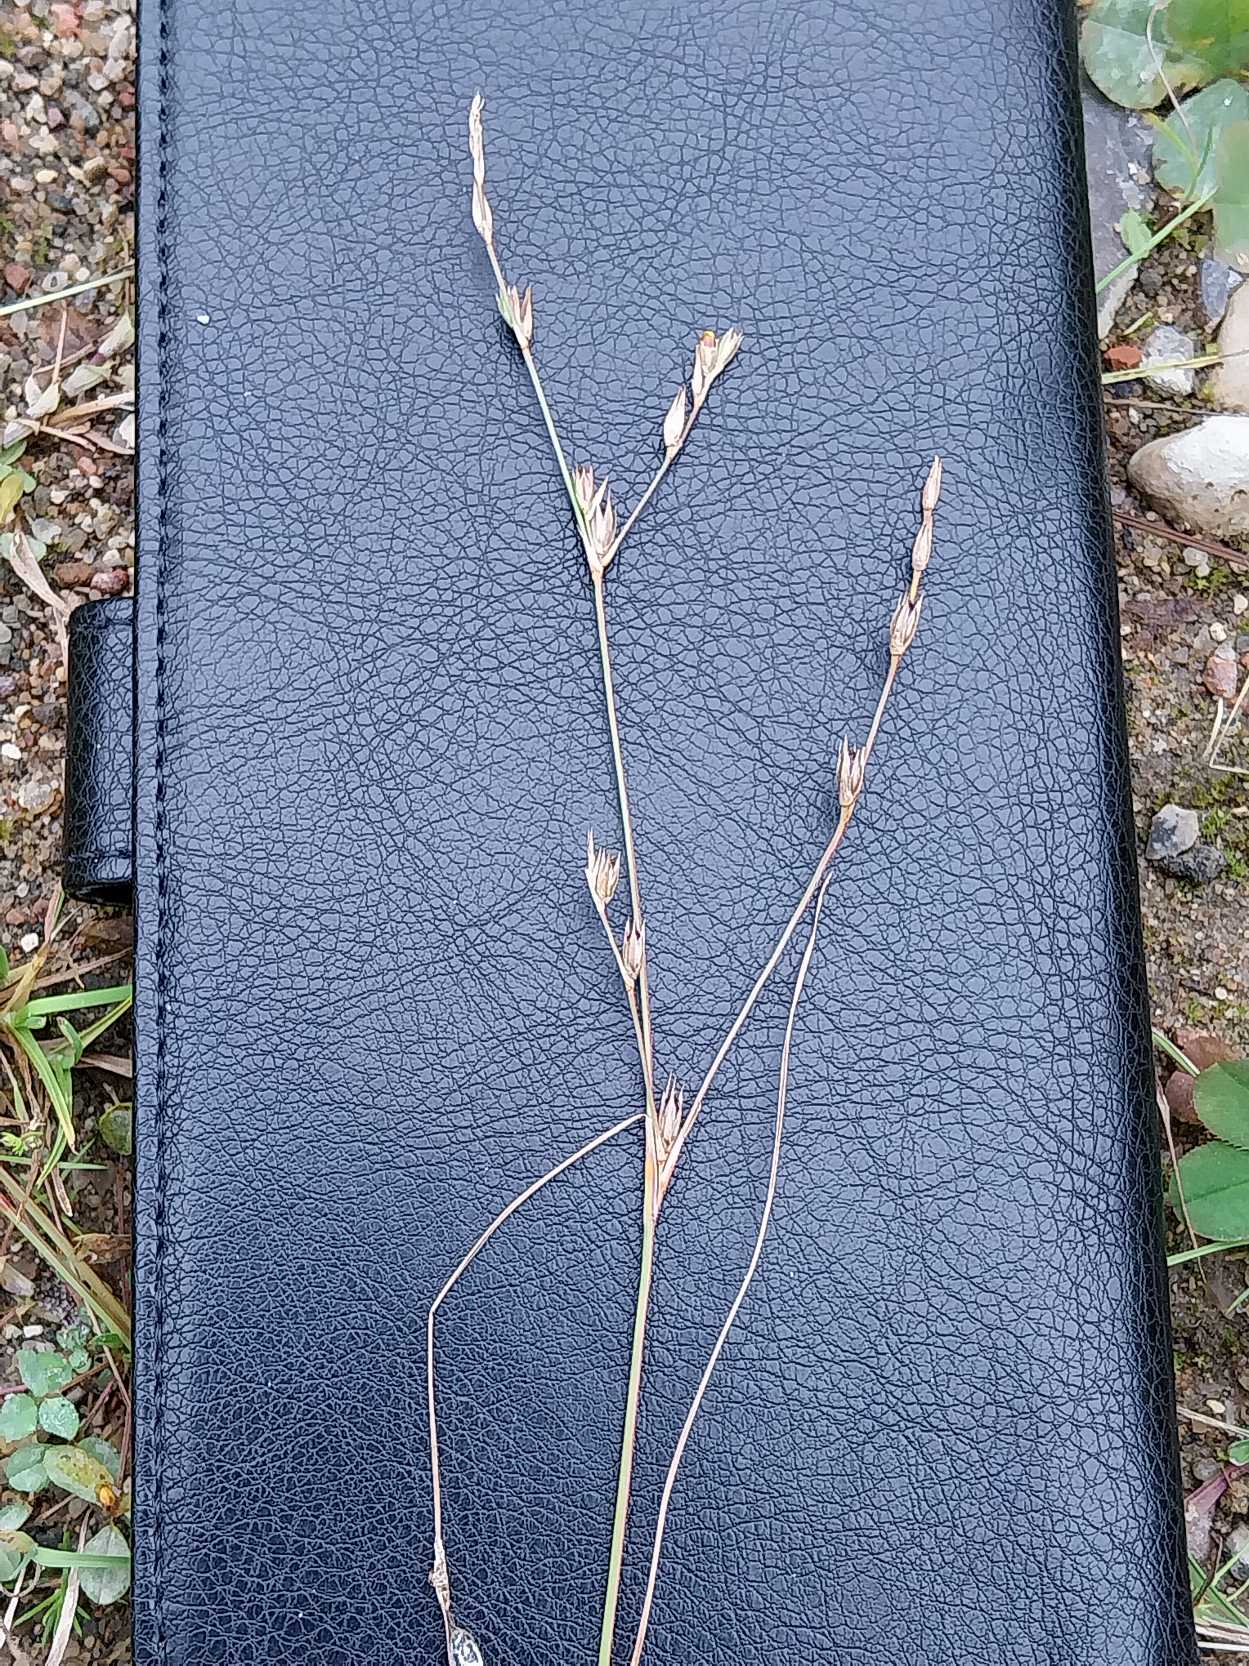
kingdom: Plantae
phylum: Tracheophyta
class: Liliopsida
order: Poales
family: Juncaceae
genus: Juncus
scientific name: Juncus bufonius
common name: Tudse-siv
